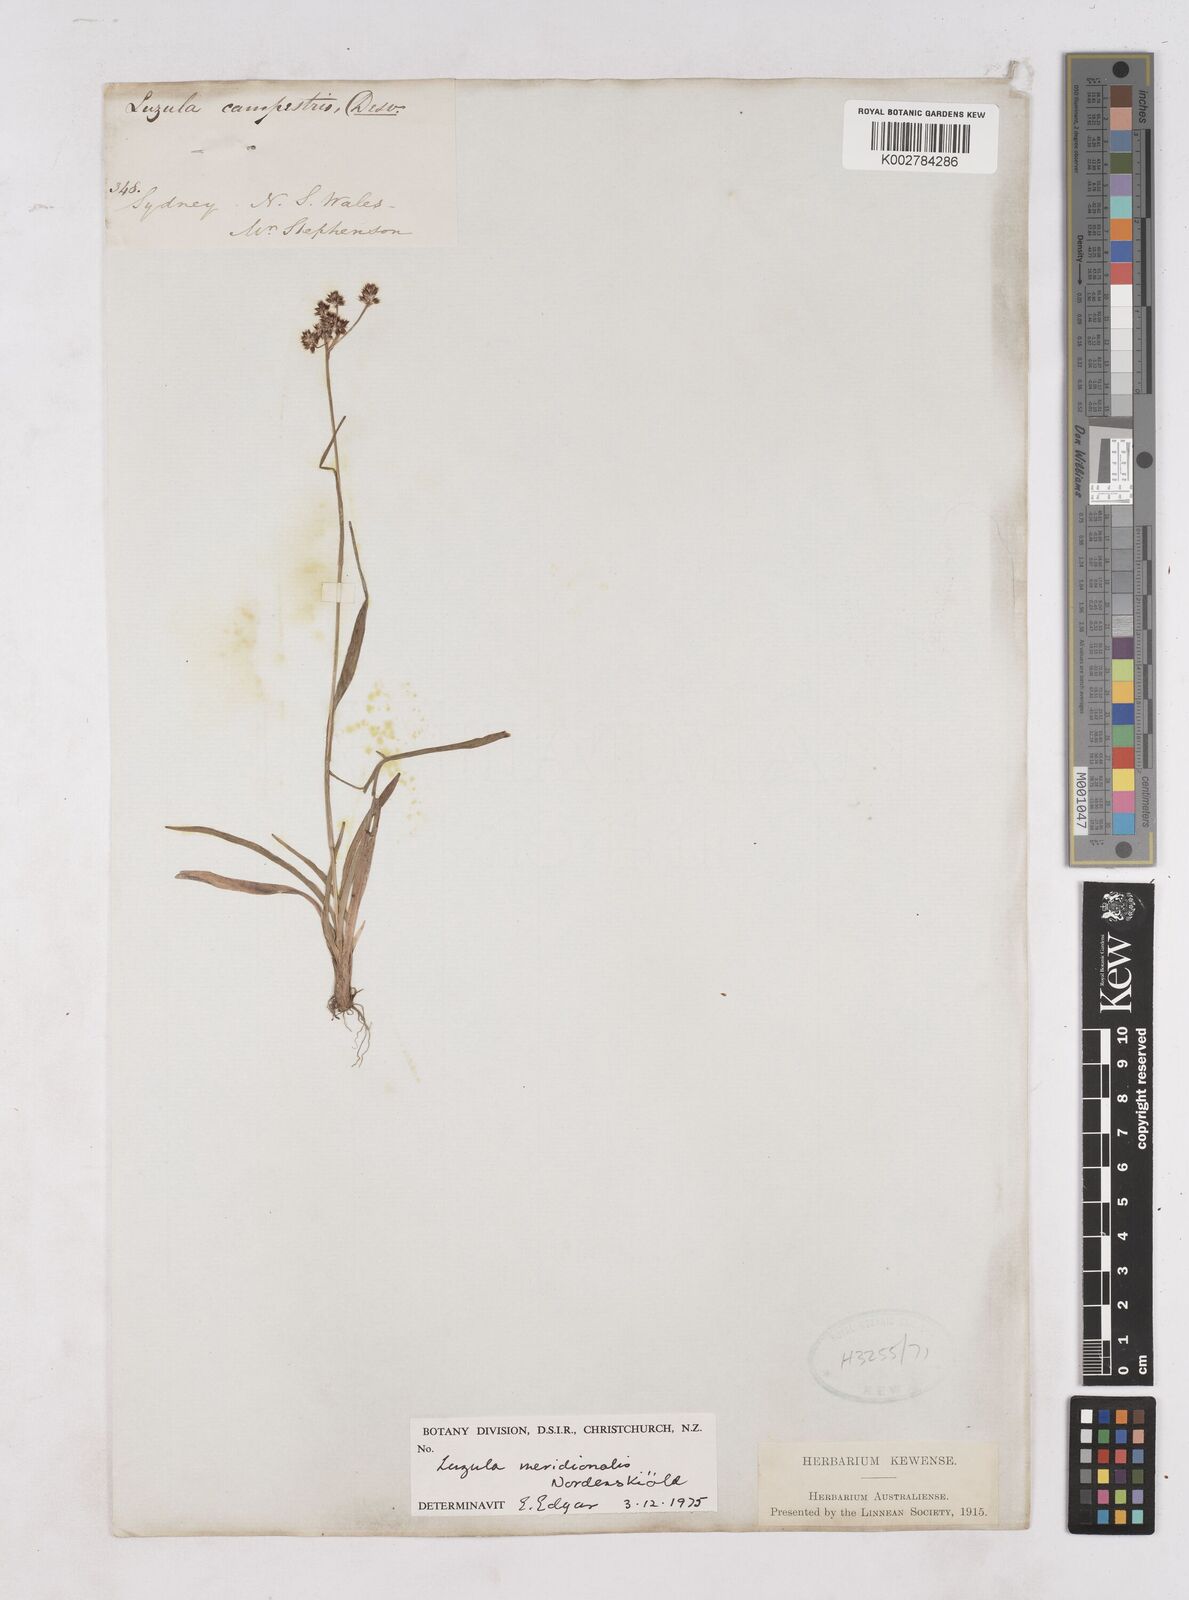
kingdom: Plantae
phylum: Tracheophyta
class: Liliopsida
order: Poales
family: Juncaceae
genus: Luzula
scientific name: Luzula meridionalis
